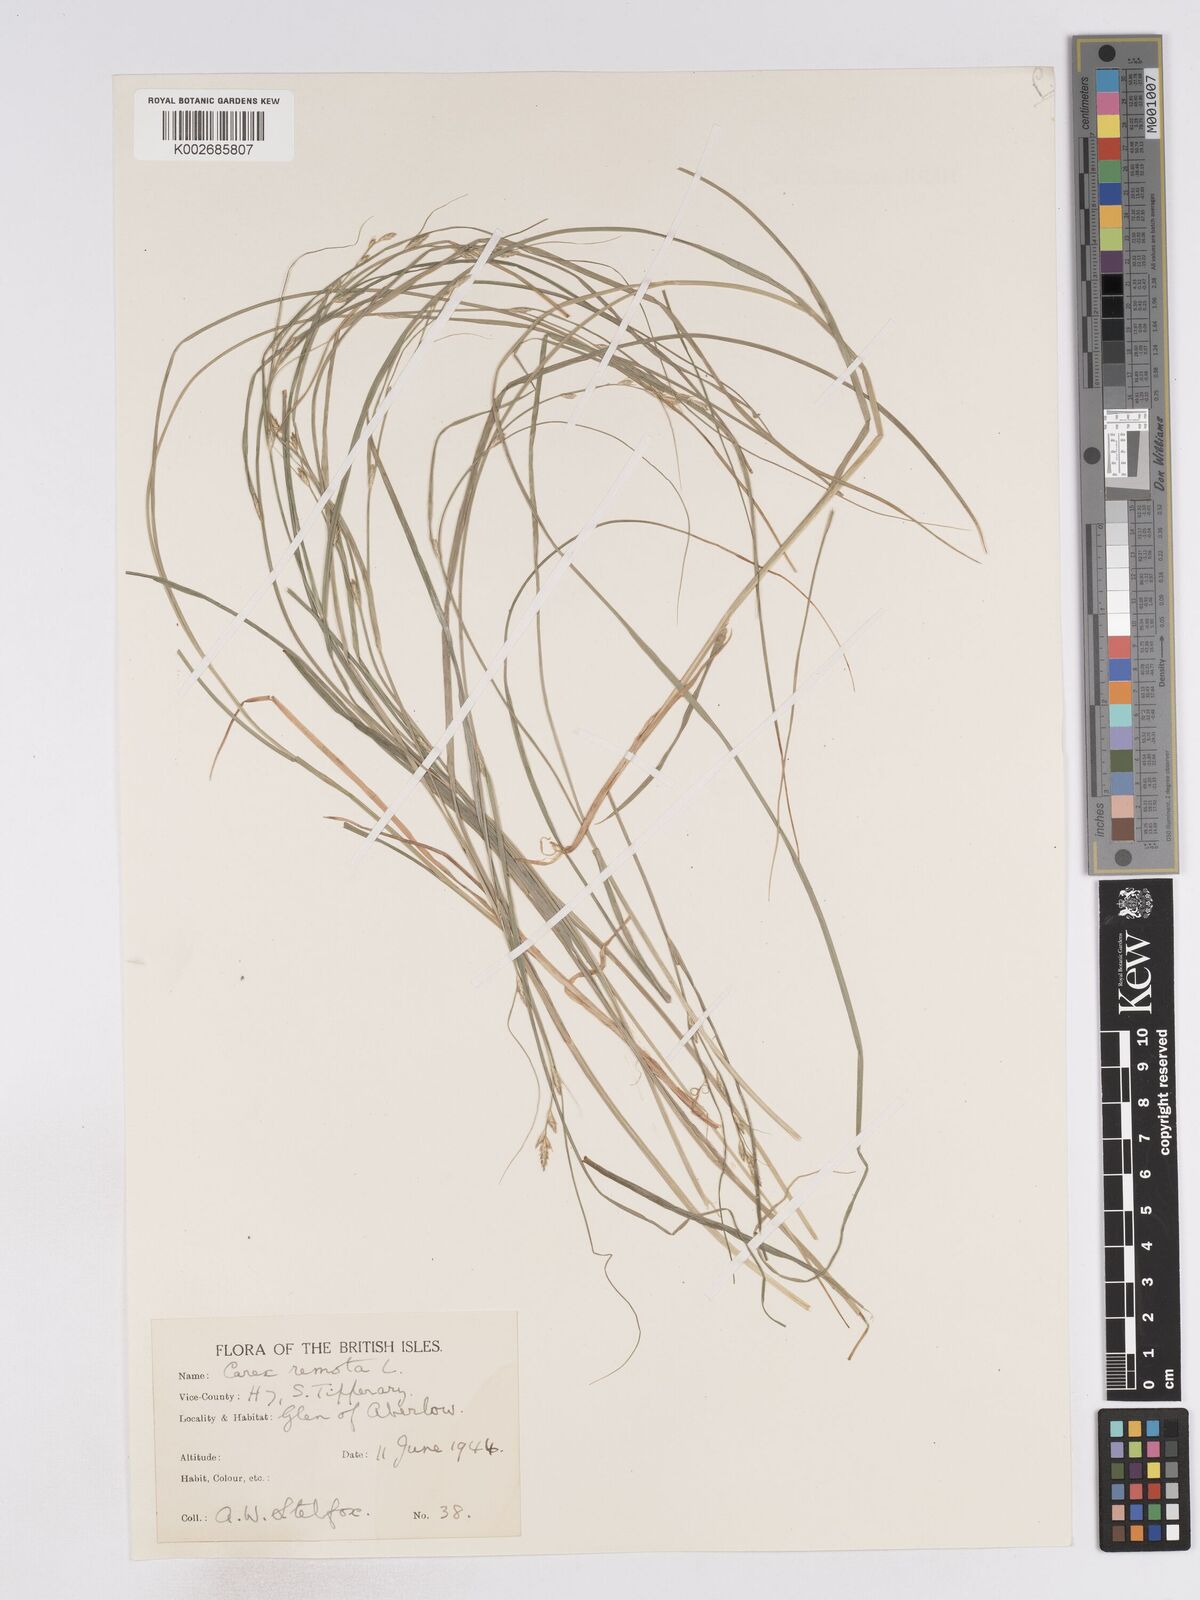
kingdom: Plantae
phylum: Tracheophyta
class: Liliopsida
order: Poales
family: Cyperaceae
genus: Carex
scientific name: Carex remota
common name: Remote sedge
